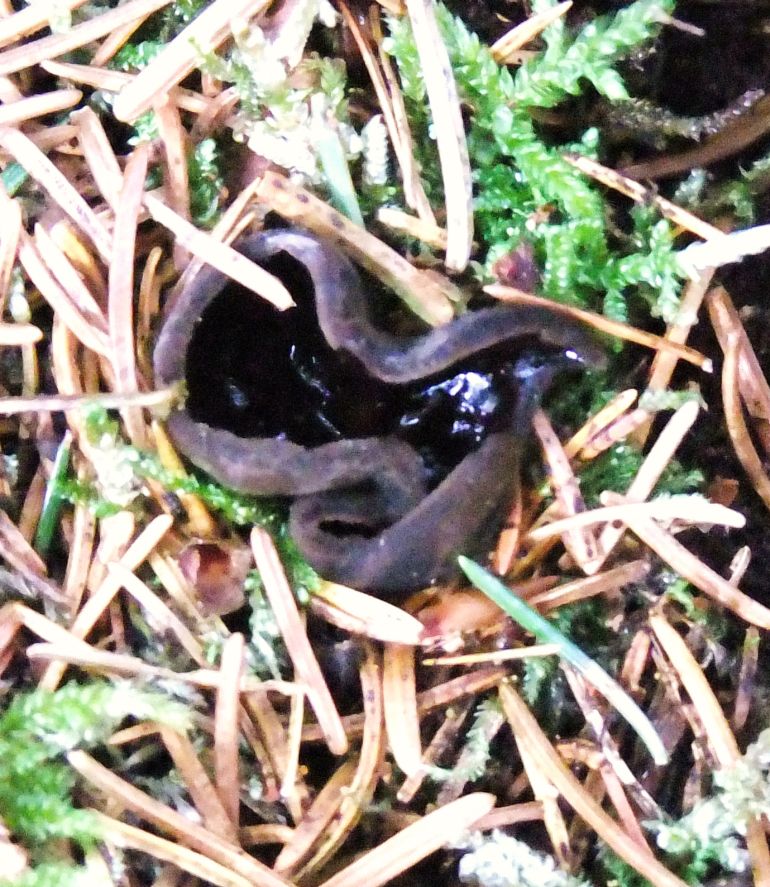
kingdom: Fungi
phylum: Ascomycota
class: Pezizomycetes
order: Pezizales
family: Sarcosomataceae
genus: Pseudoplectania
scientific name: Pseudoplectania nigrella
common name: almindelig sortbæger
